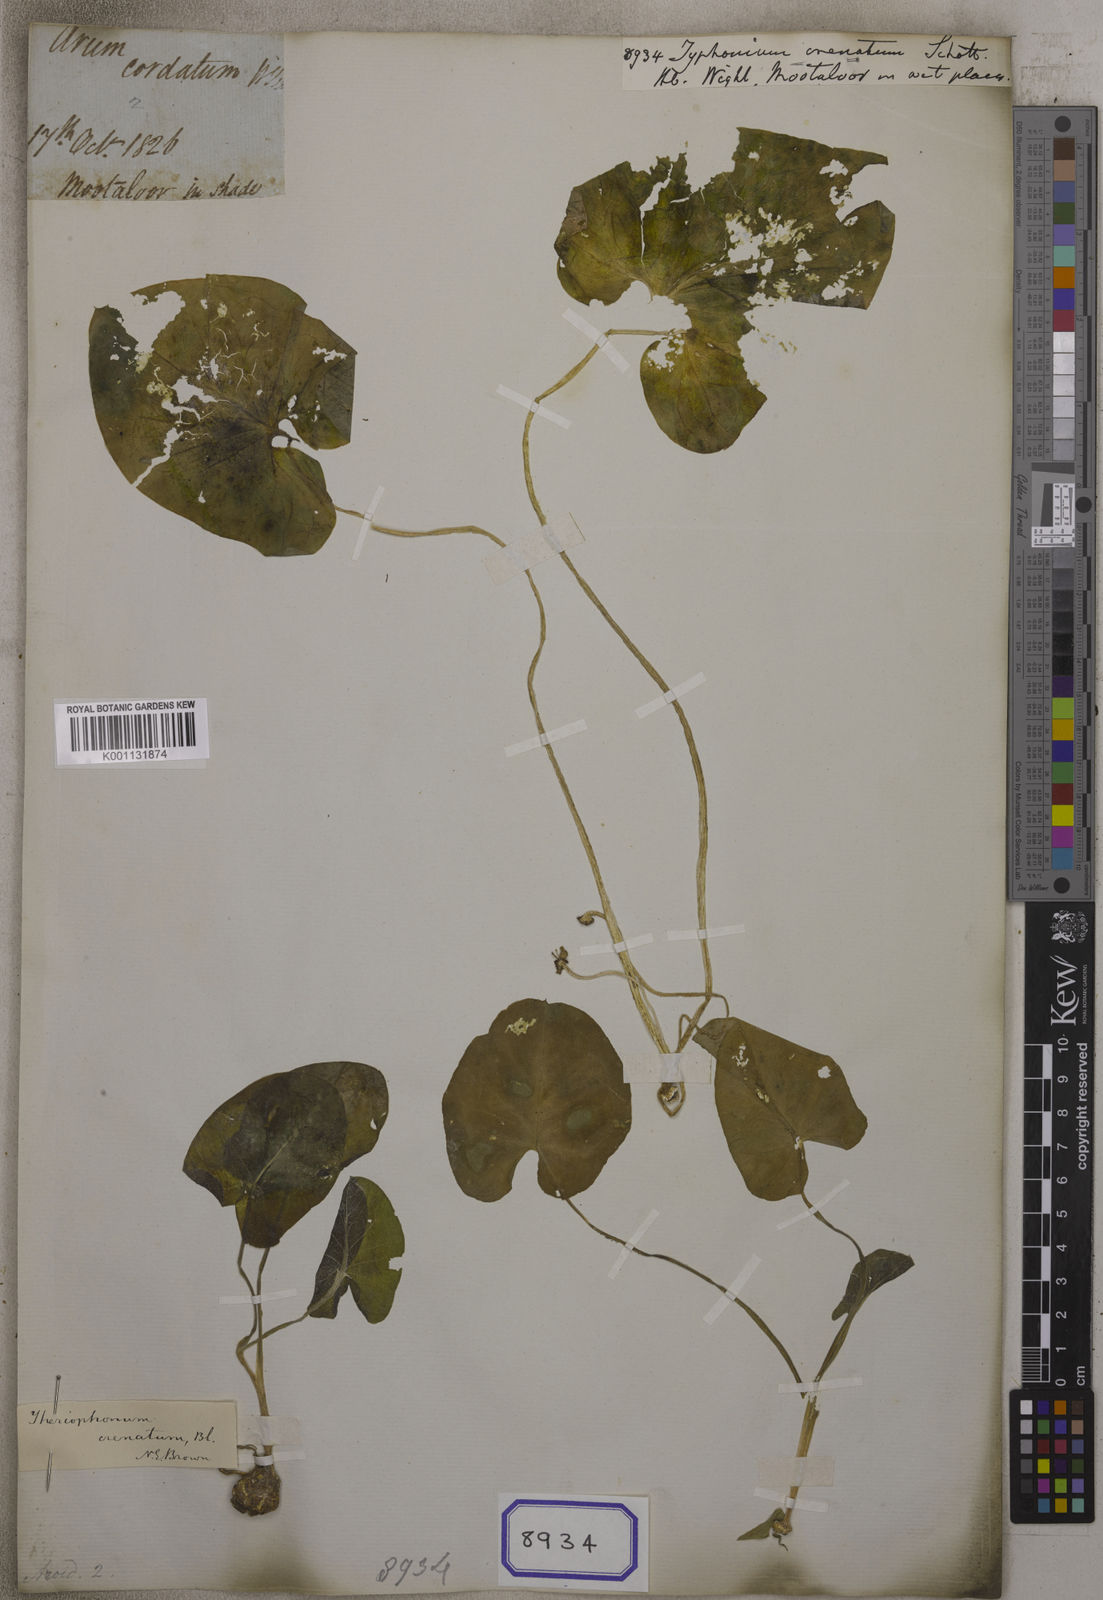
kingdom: Plantae
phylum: Tracheophyta
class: Liliopsida
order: Alismatales
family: Araceae
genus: Theriophonum
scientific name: Theriophonum minutum
